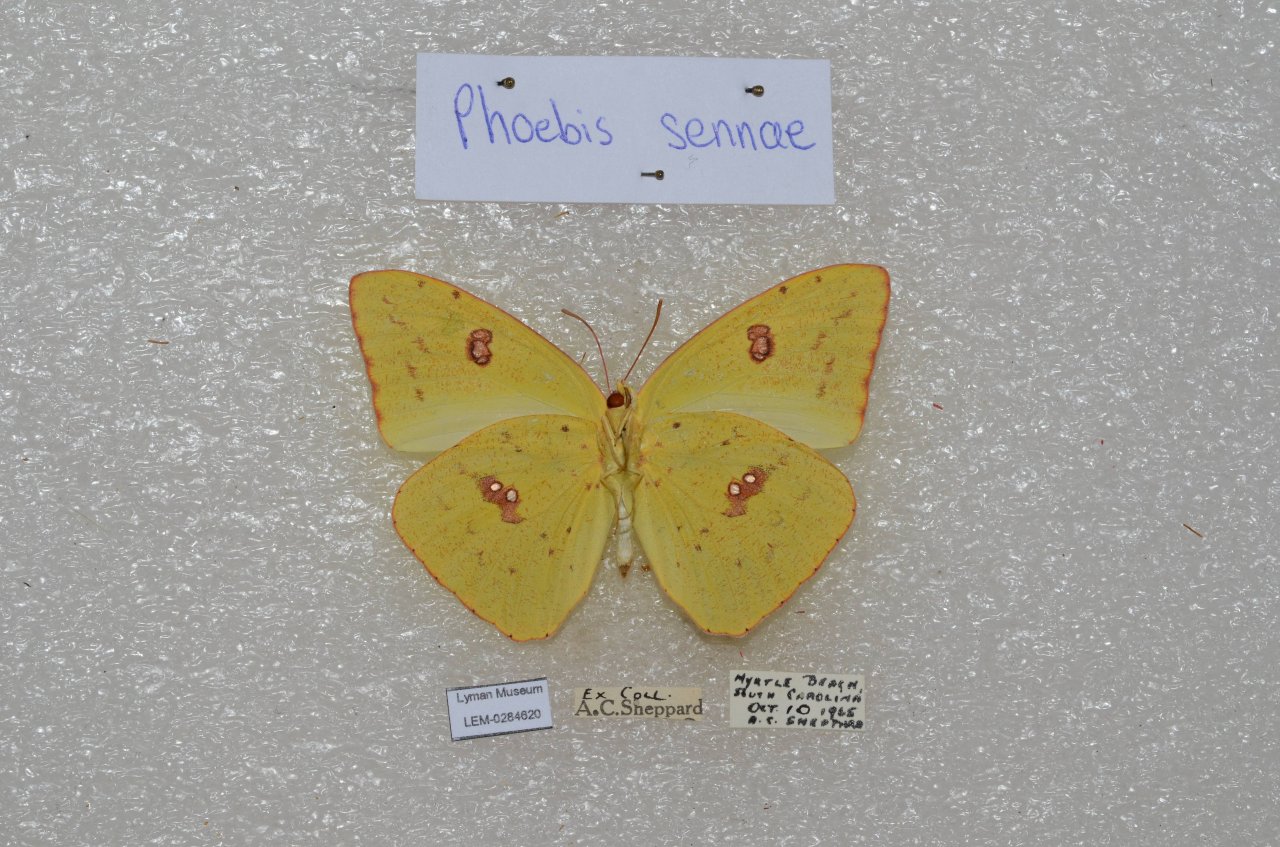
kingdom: Animalia
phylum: Arthropoda
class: Insecta
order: Lepidoptera
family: Pieridae
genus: Phoebis
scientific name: Phoebis sennae
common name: Cloudless Sulphur
